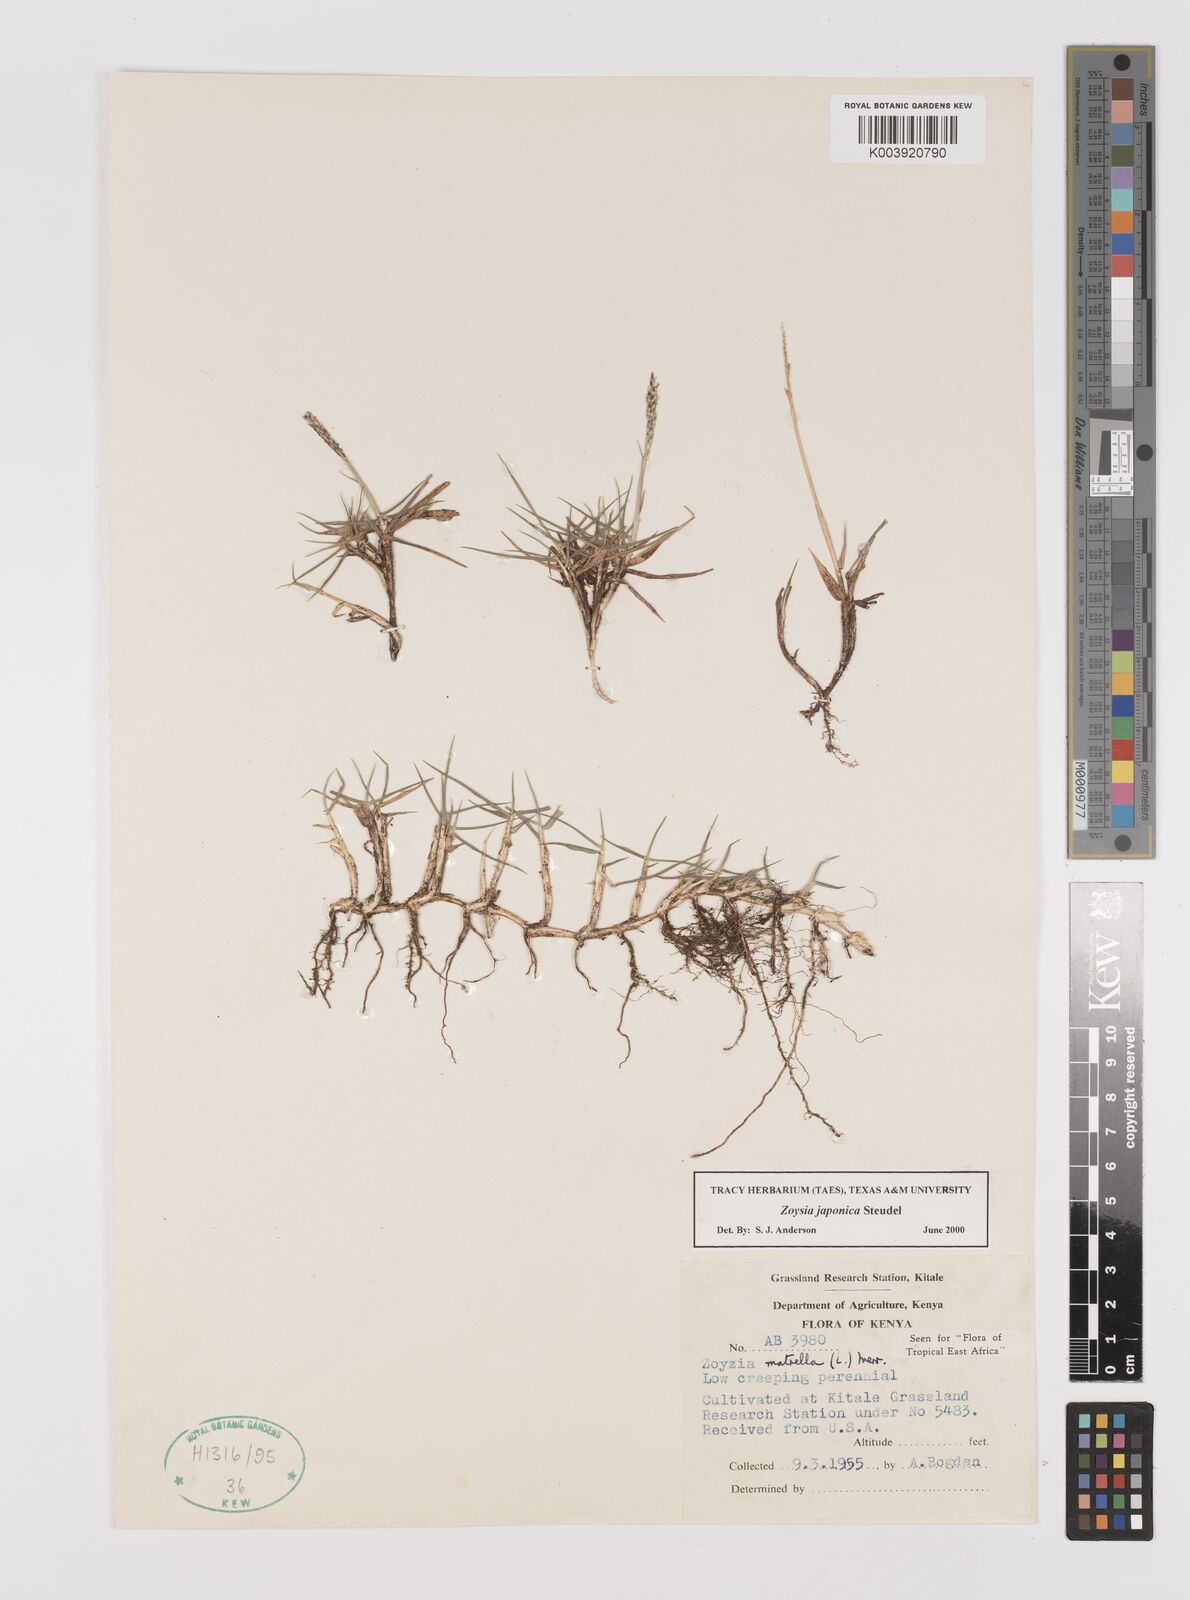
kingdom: Plantae
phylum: Tracheophyta
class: Liliopsida
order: Poales
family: Poaceae
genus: Zoysia
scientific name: Zoysia japonica
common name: Korean lawngrass
